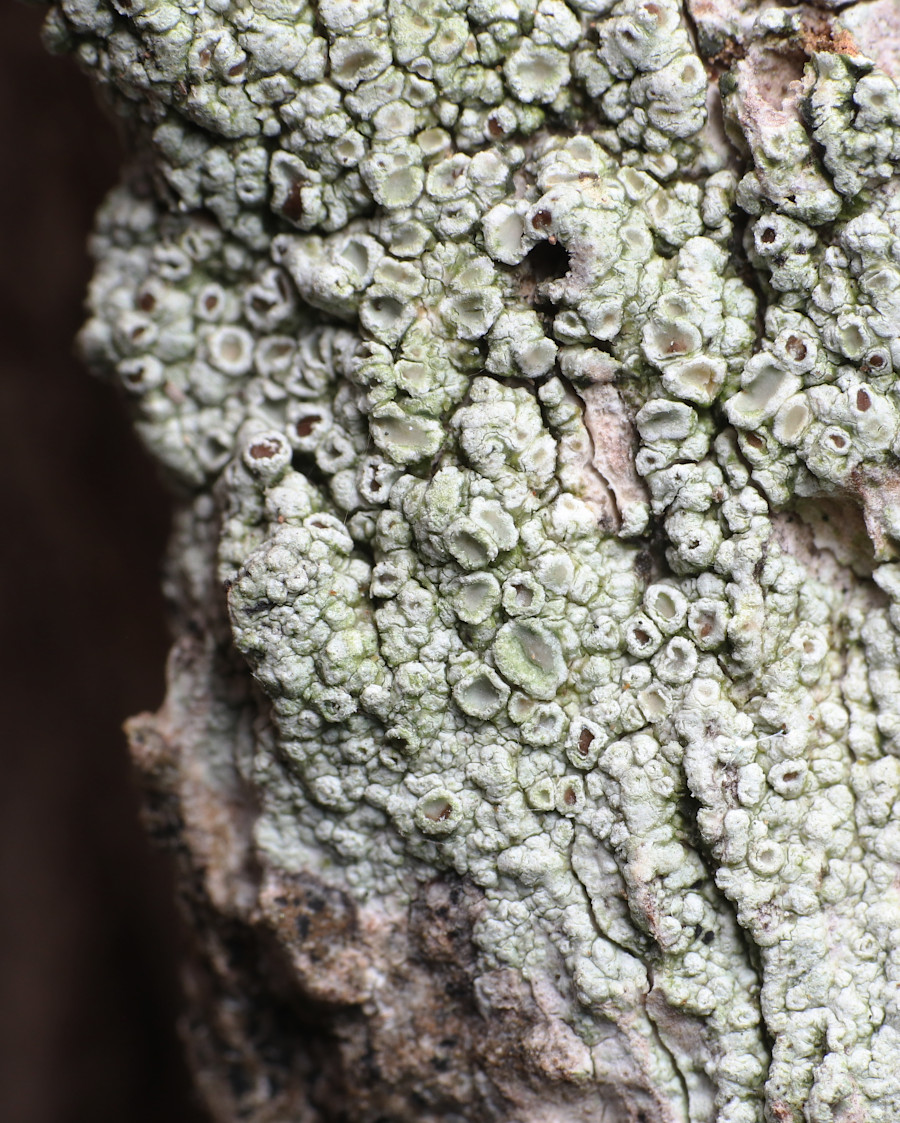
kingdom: Fungi
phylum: Ascomycota
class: Lecanoromycetes
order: Lecanorales
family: Lecanoraceae
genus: Lecanora
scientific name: Lecanora
